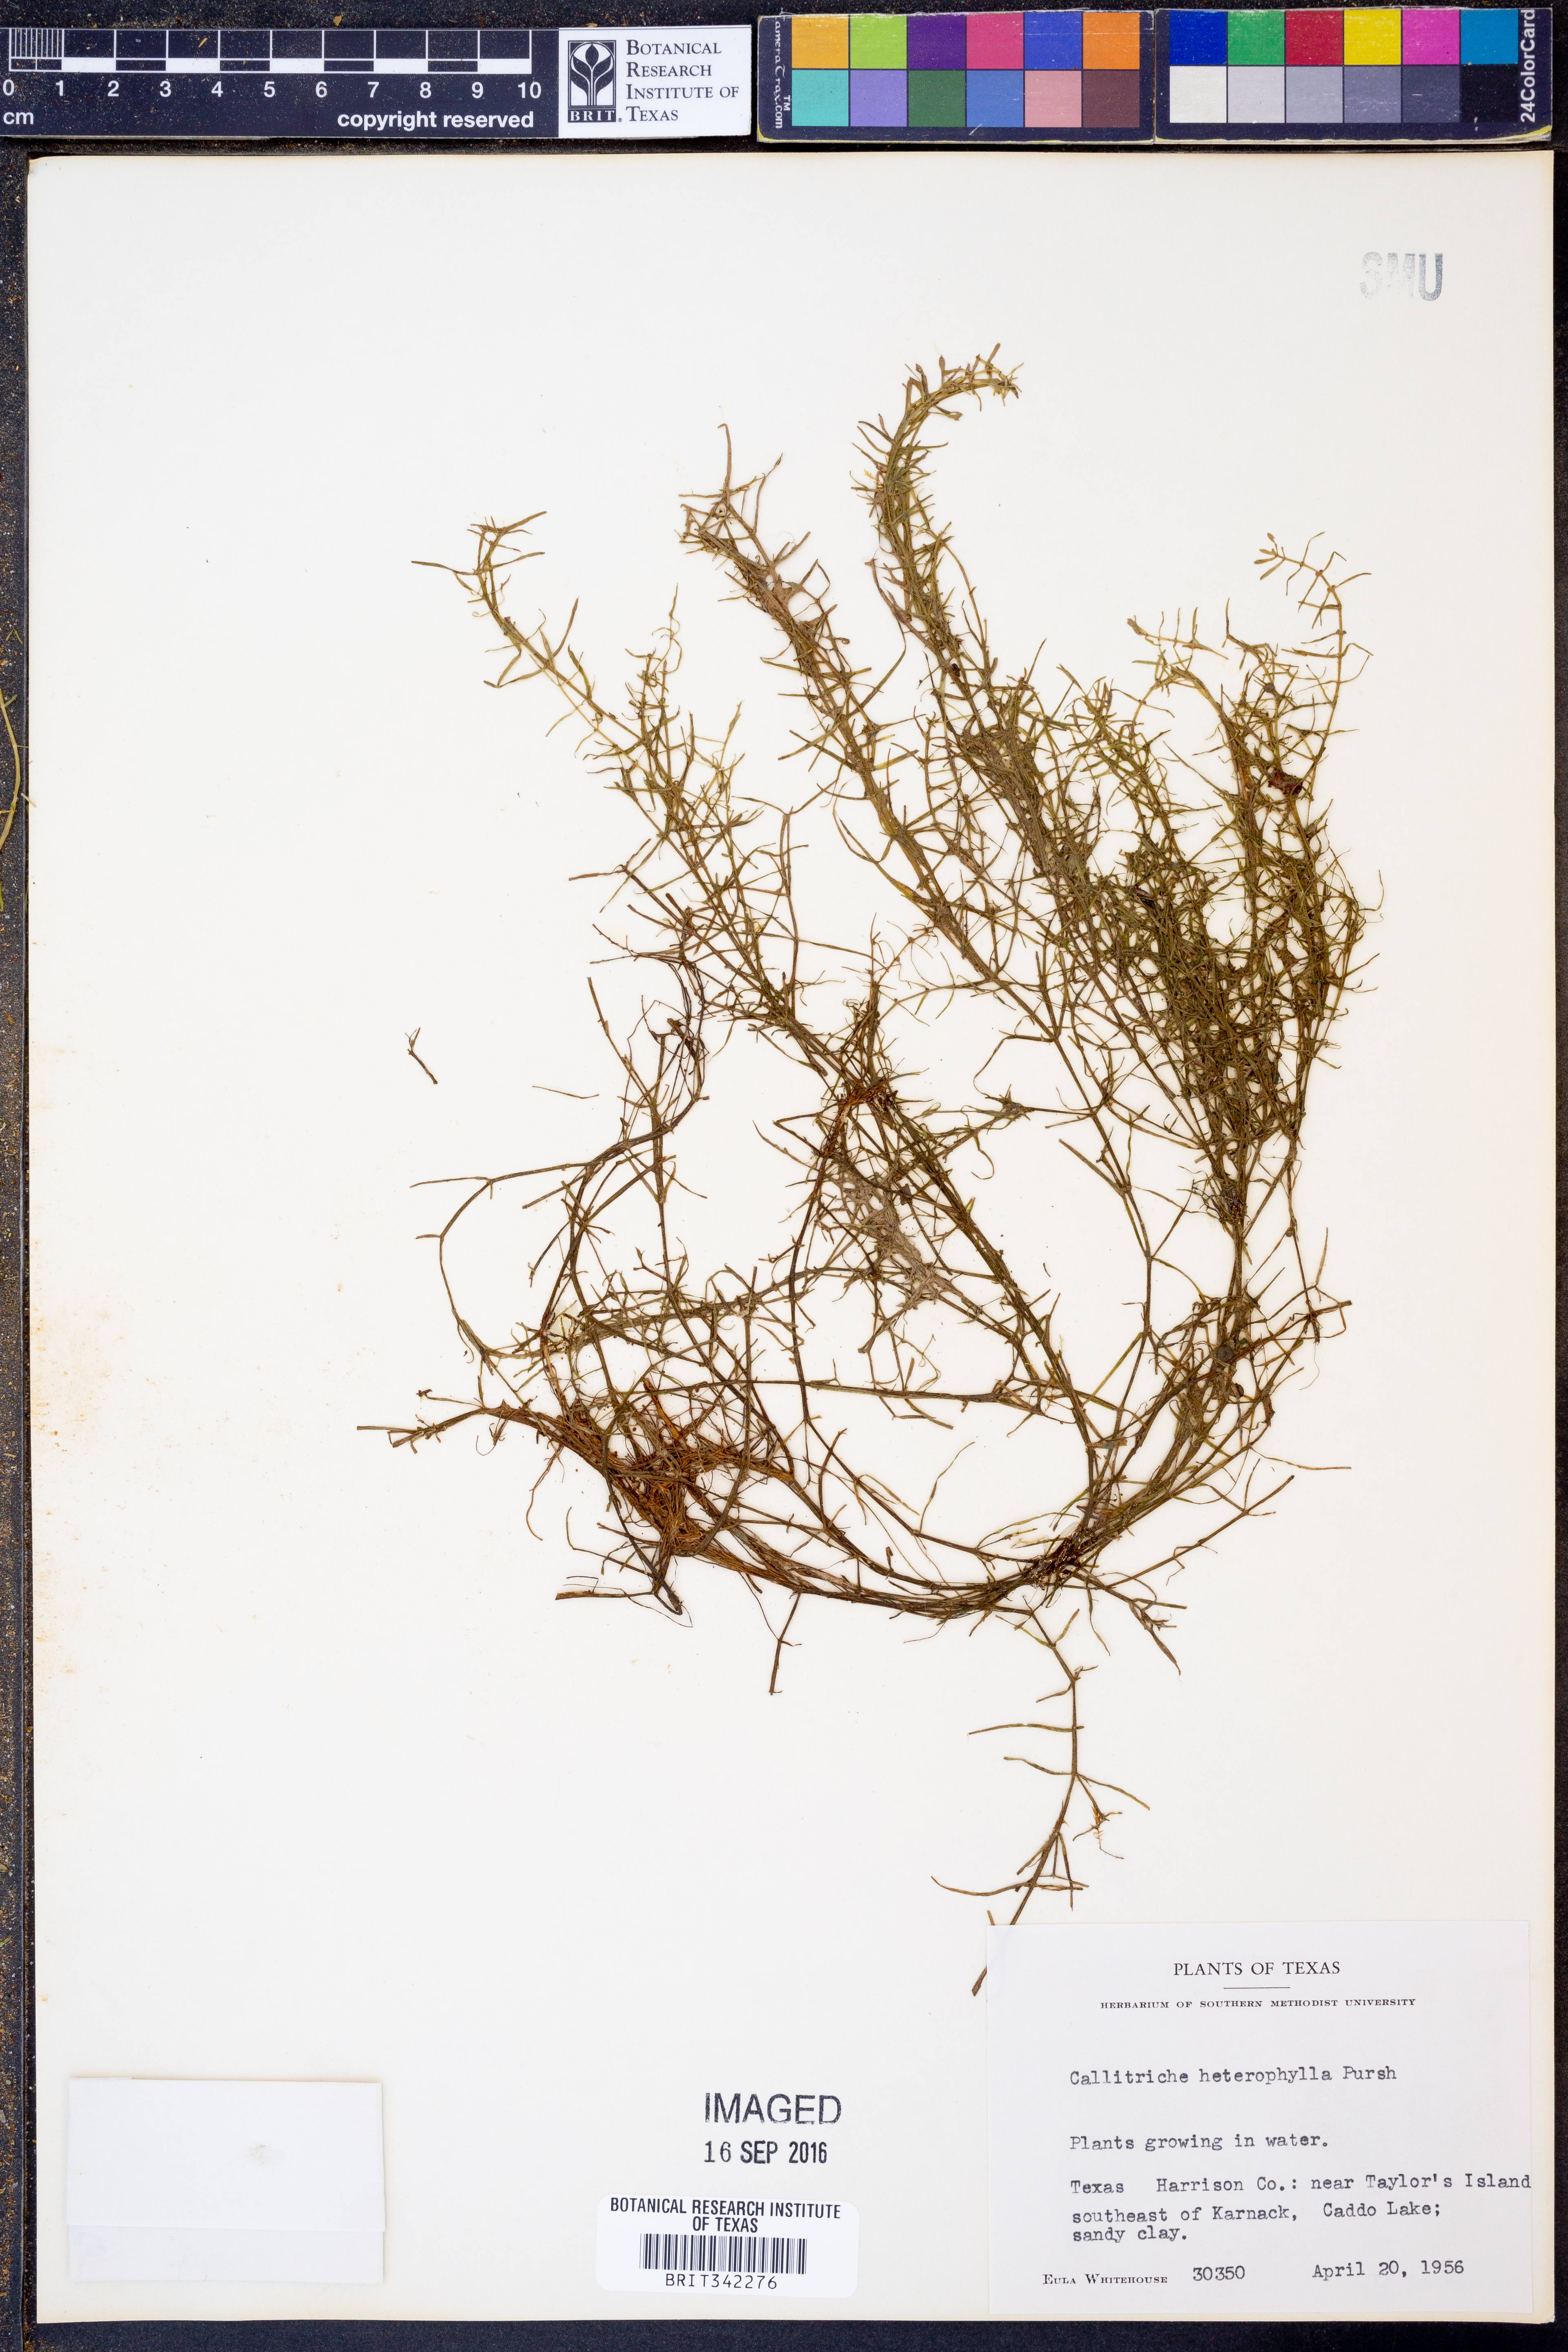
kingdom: Plantae
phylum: Tracheophyta
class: Magnoliopsida
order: Lamiales
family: Plantaginaceae
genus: Callitriche
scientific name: Callitriche heterophylla
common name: Two-headed water-starwort
